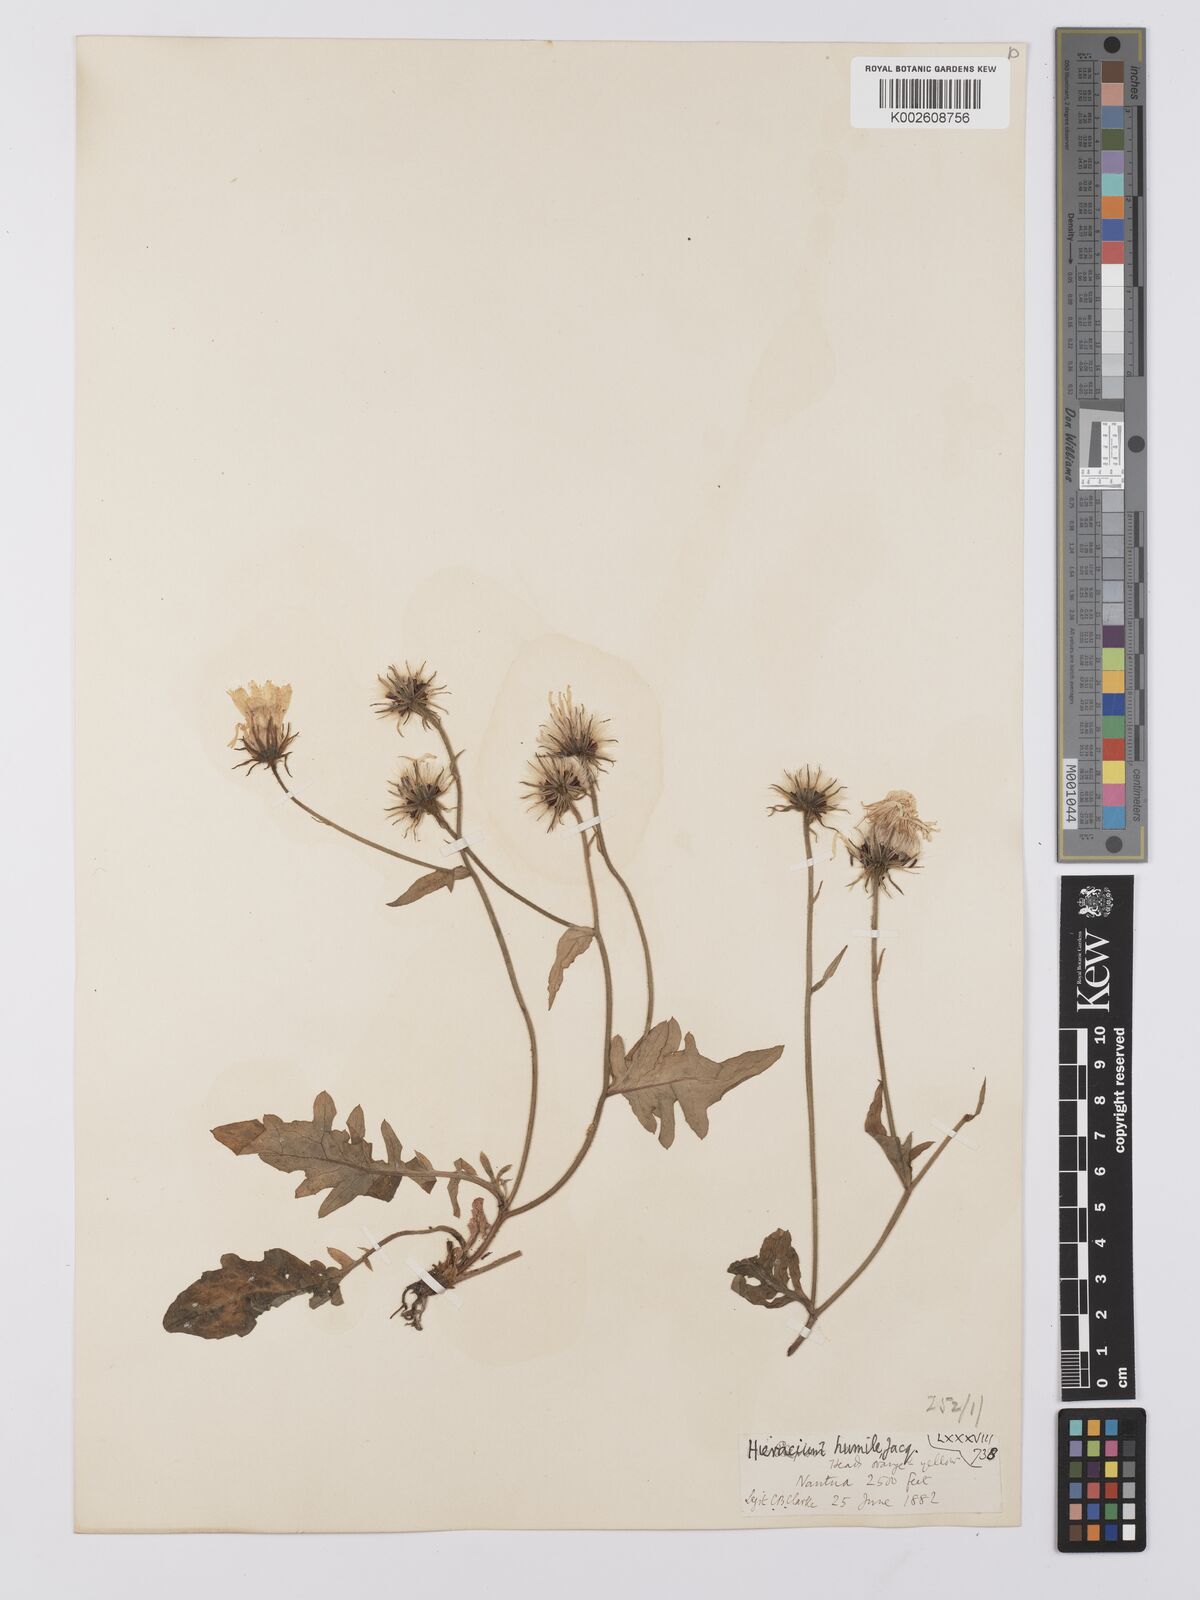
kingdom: Plantae
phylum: Tracheophyta
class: Magnoliopsida
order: Asterales
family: Asteraceae
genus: Hieracium
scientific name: Hieracium humile
